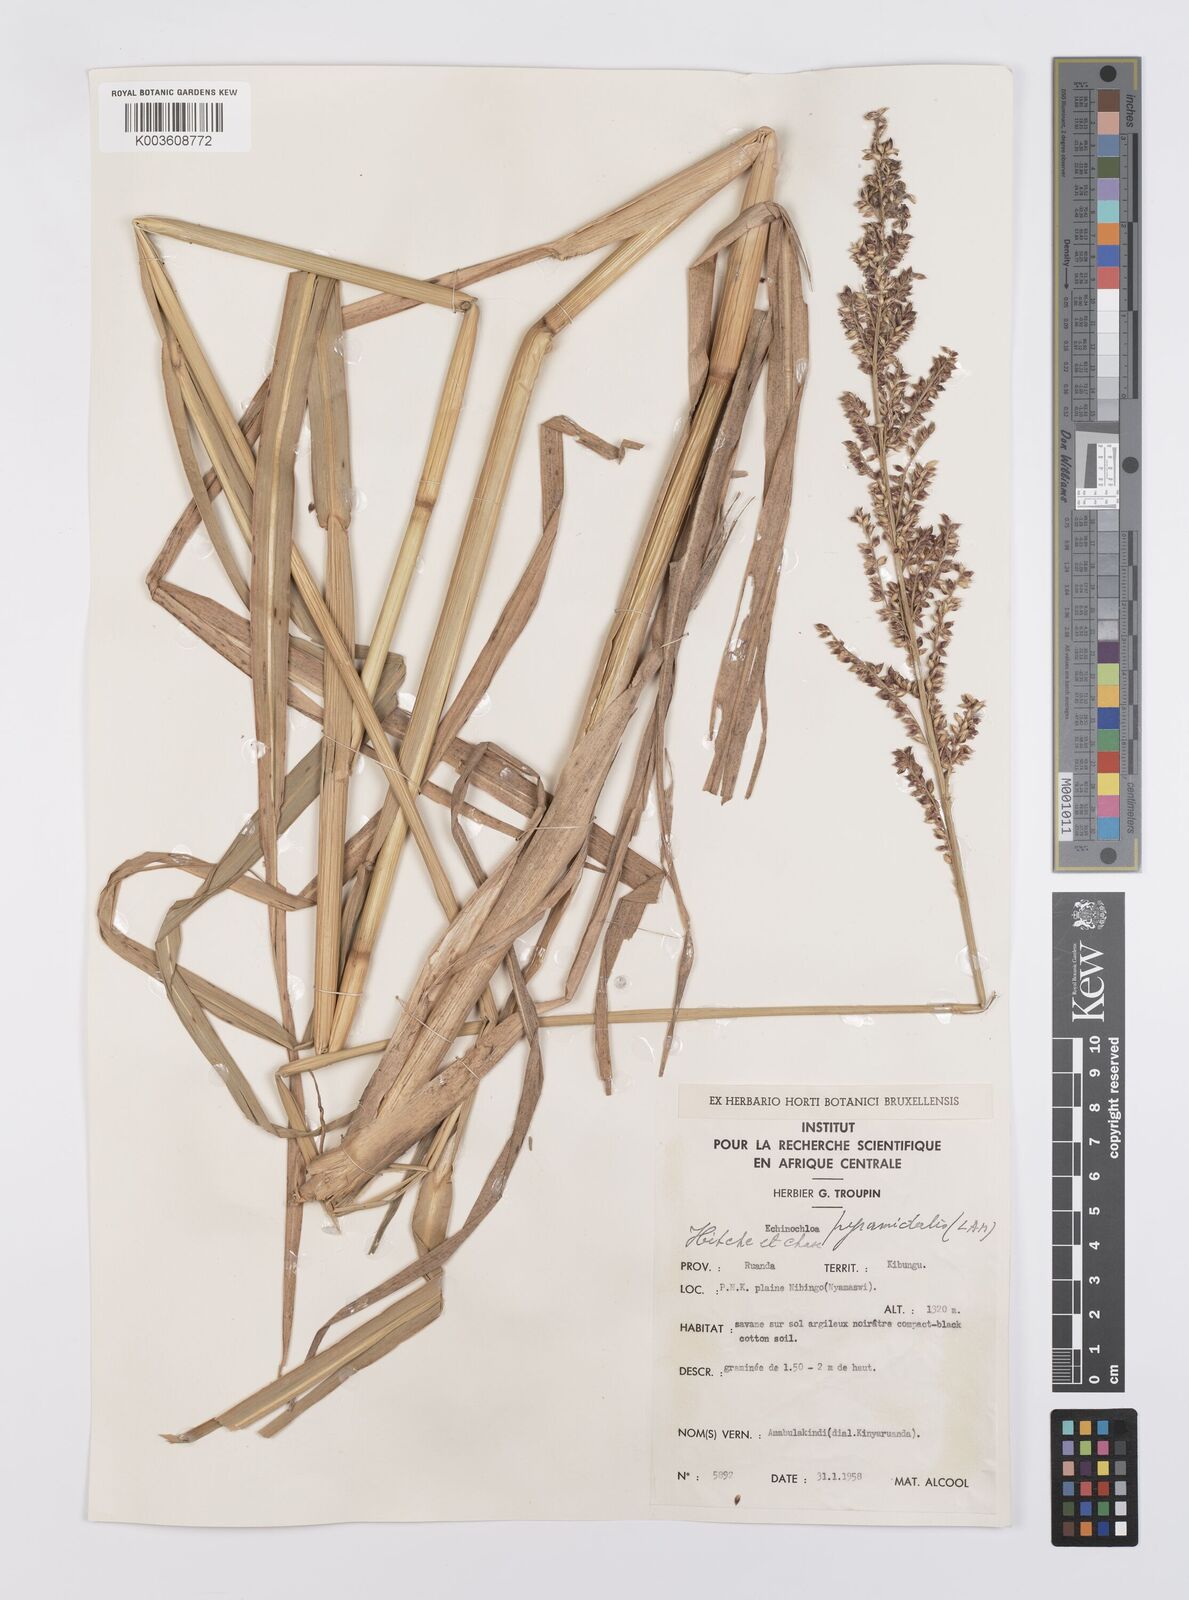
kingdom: Plantae
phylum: Tracheophyta
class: Liliopsida
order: Poales
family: Poaceae
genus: Echinochloa
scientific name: Echinochloa pyramidalis
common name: Antelope grass
